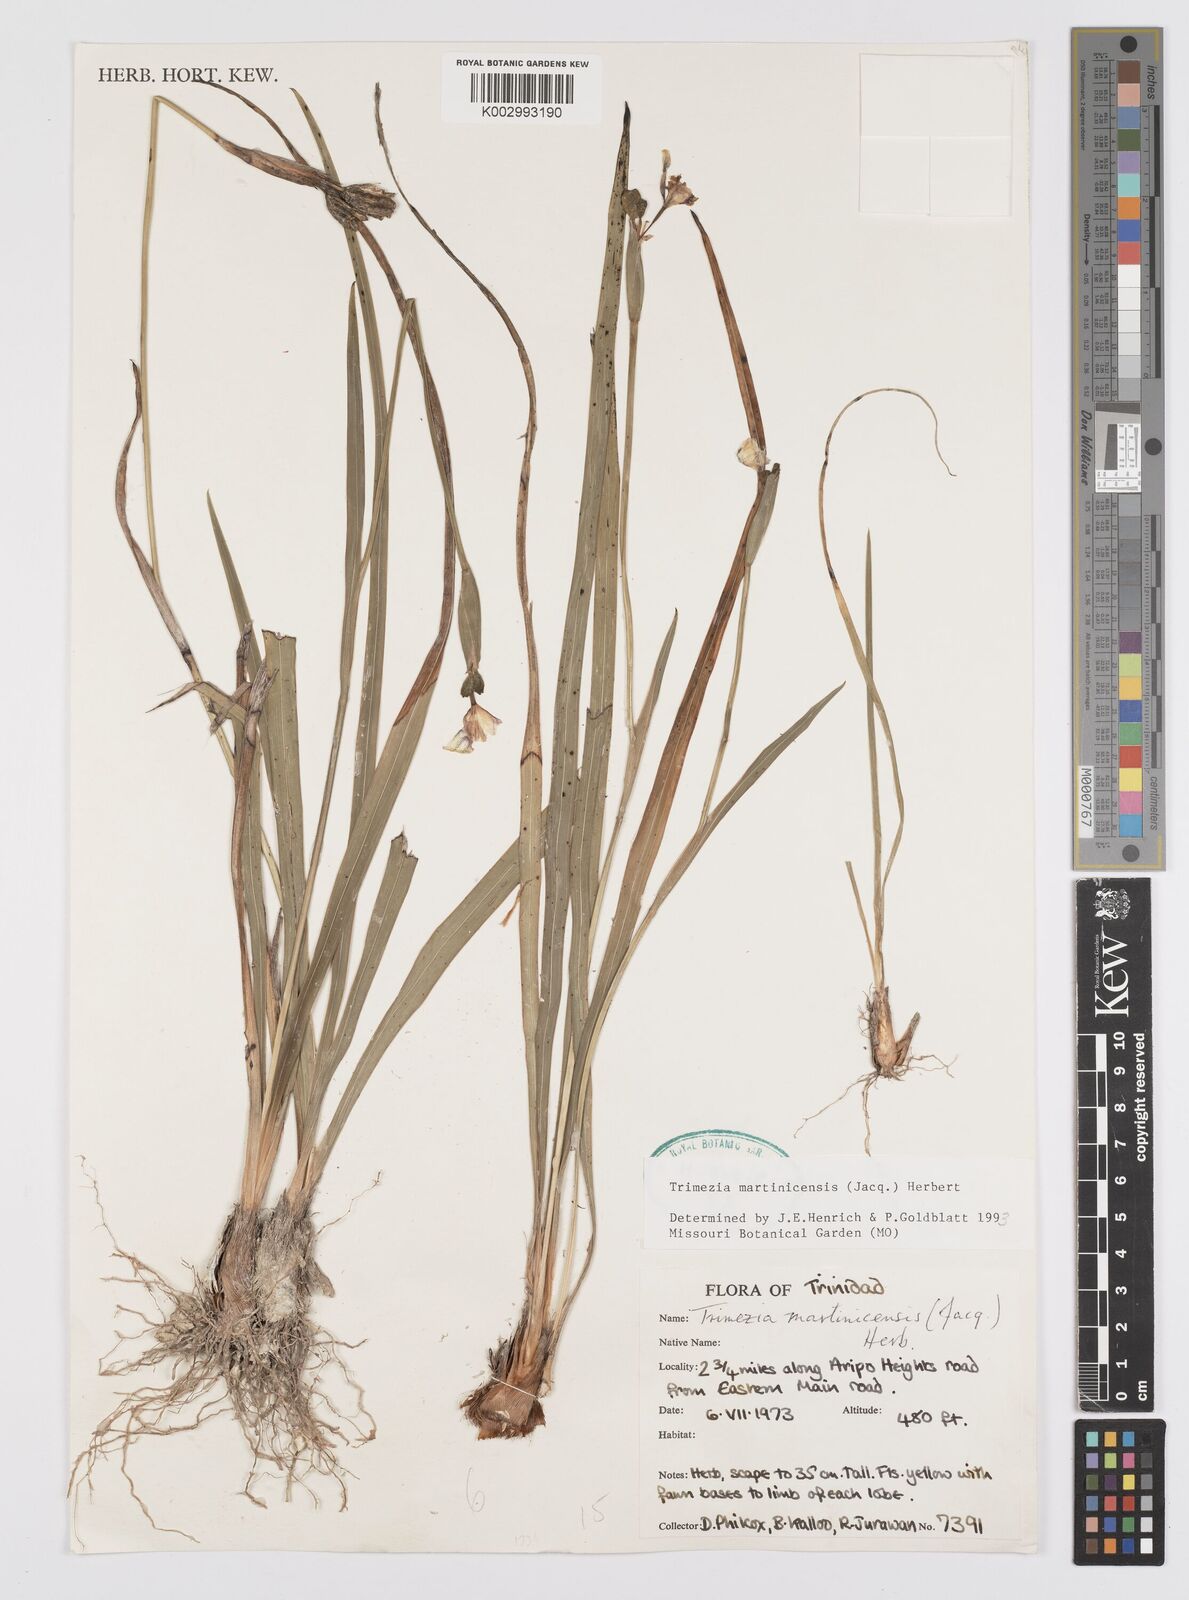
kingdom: Plantae
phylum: Tracheophyta
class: Liliopsida
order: Asparagales
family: Iridaceae
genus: Trimezia
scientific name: Trimezia martinicensis
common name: Martinique trimezia
